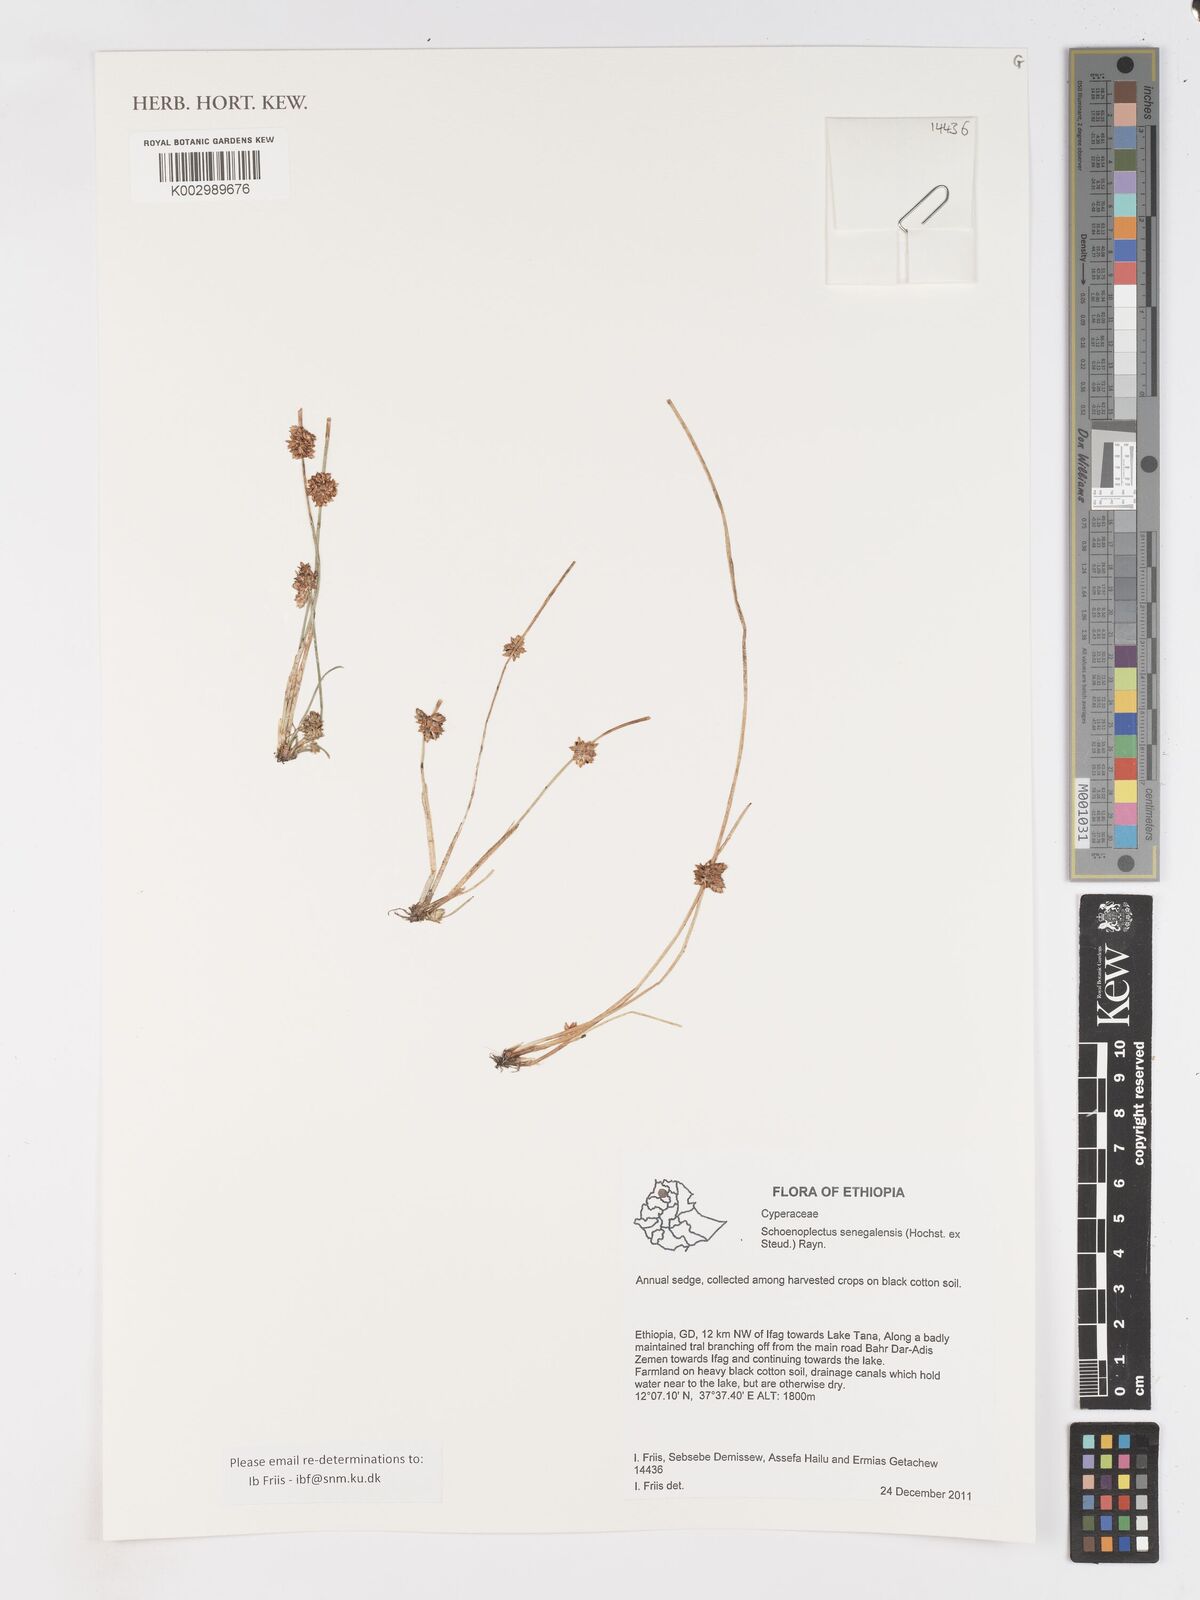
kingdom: Plantae
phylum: Tracheophyta
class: Liliopsida
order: Poales
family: Cyperaceae
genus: Schoenoplectiella
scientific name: Schoenoplectiella senegalensis
